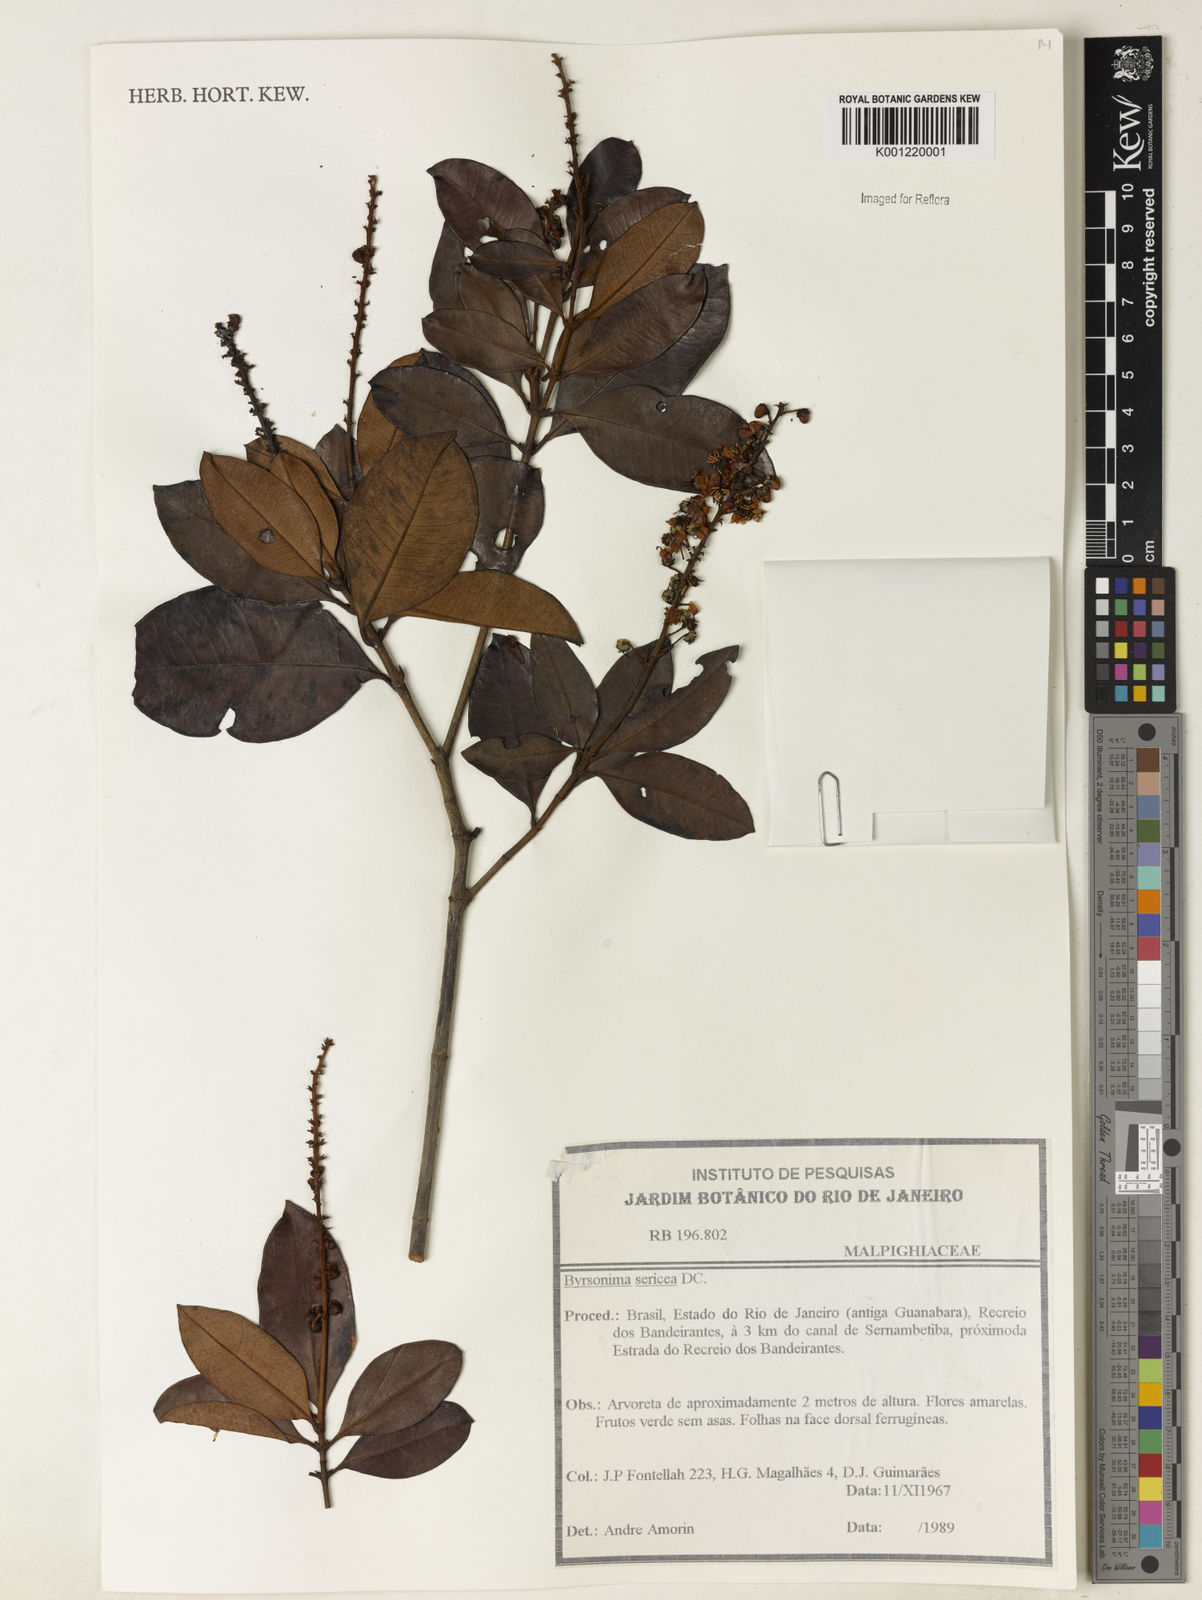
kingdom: Plantae
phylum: Tracheophyta
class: Magnoliopsida
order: Malpighiales
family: Malpighiaceae
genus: Byrsonima
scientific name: Byrsonima sericea
